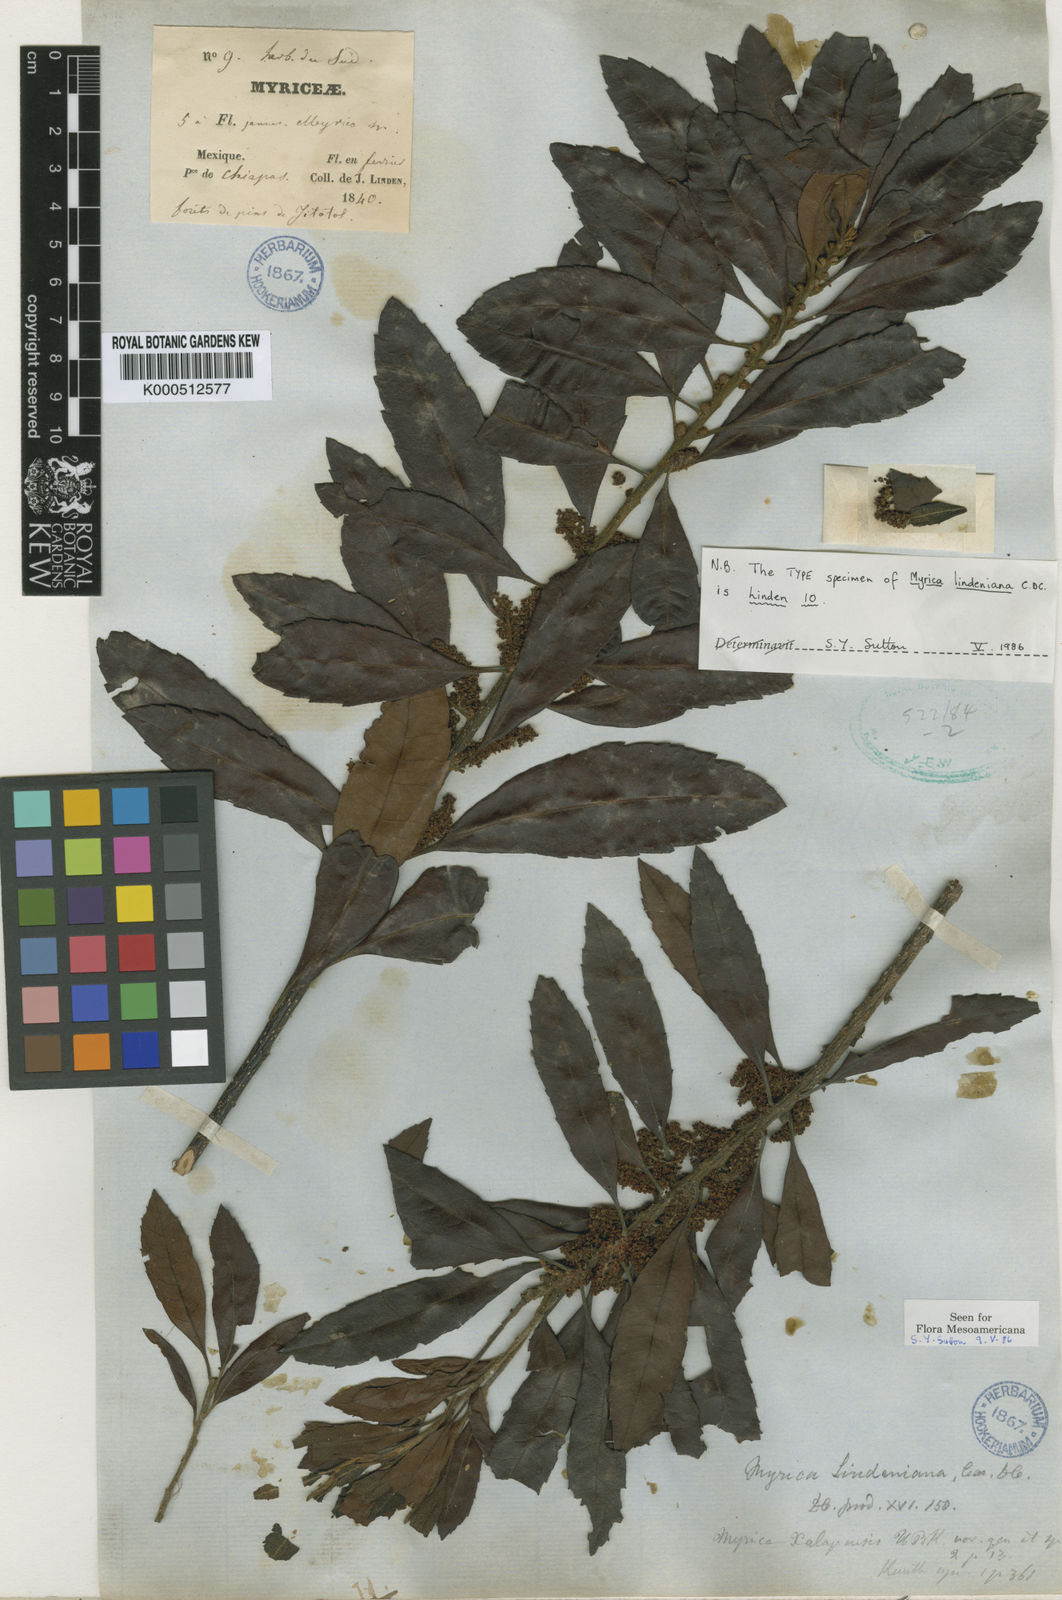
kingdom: Plantae
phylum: Tracheophyta
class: Magnoliopsida
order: Fagales
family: Myricaceae
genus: Morella
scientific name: Morella lindeniana
